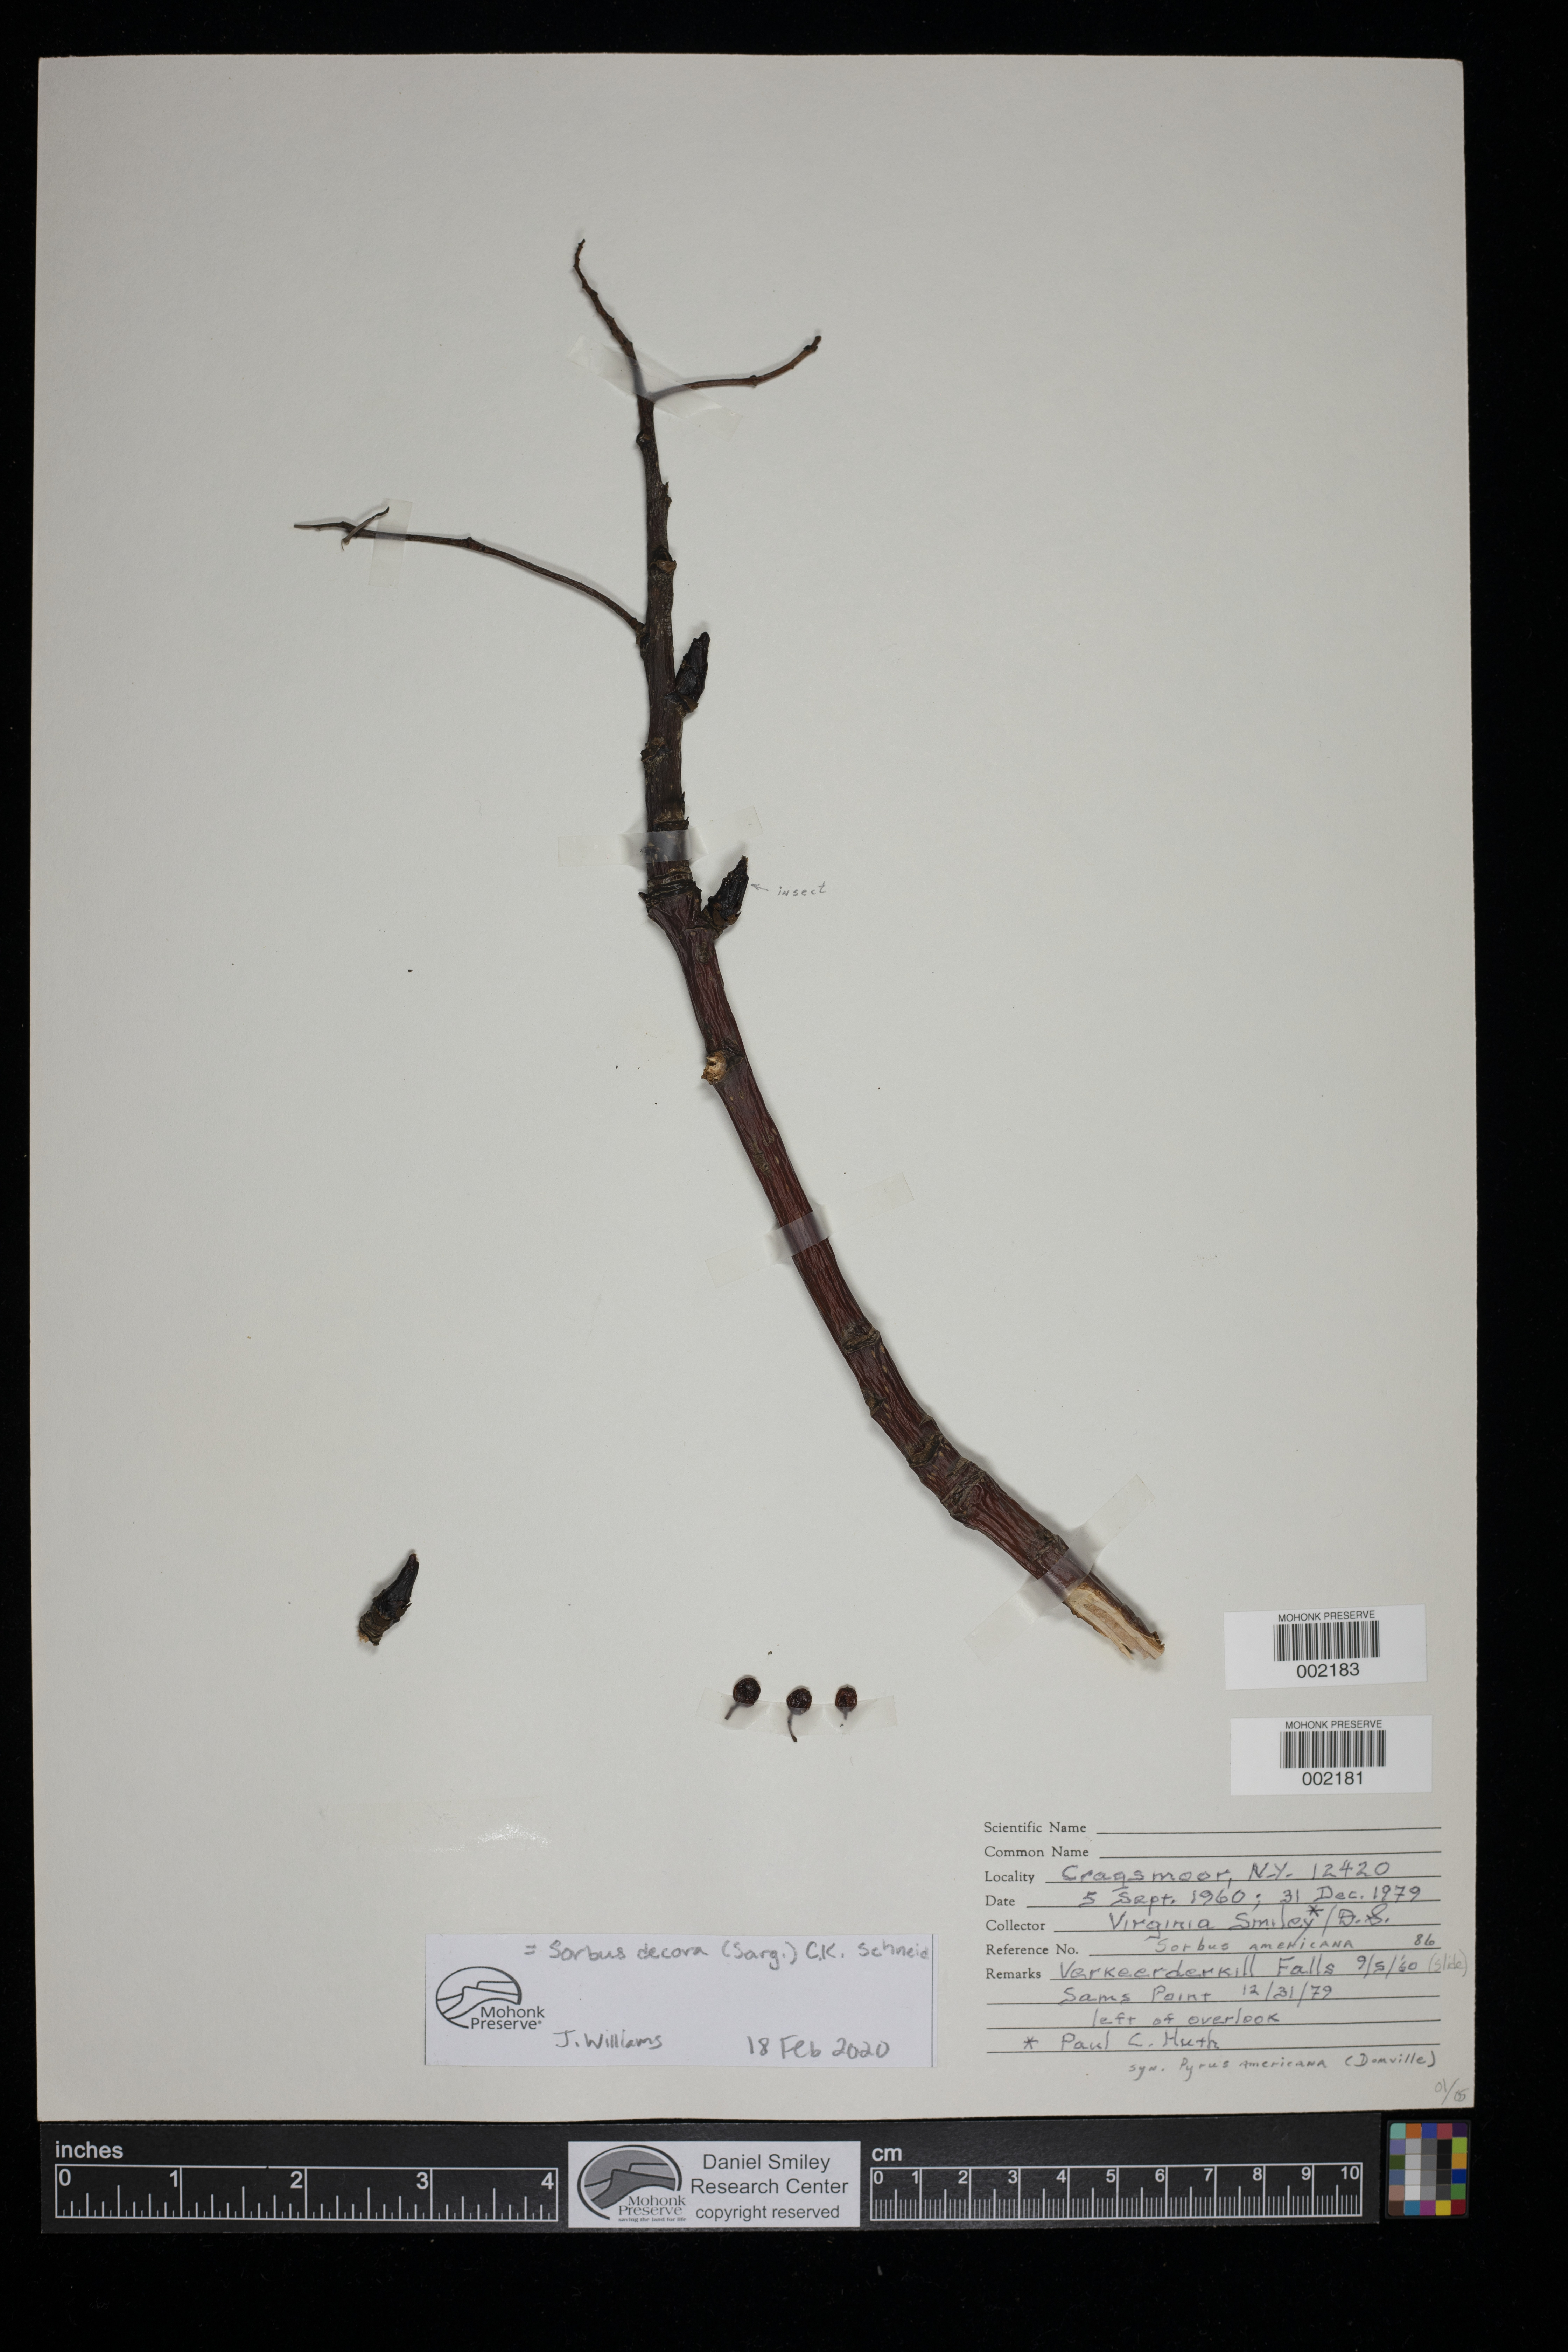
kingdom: Plantae
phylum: Tracheophyta
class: Magnoliopsida
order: Rosales
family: Rosaceae
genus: Sorbus
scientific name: Sorbus decora
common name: Northern mountain-ash
